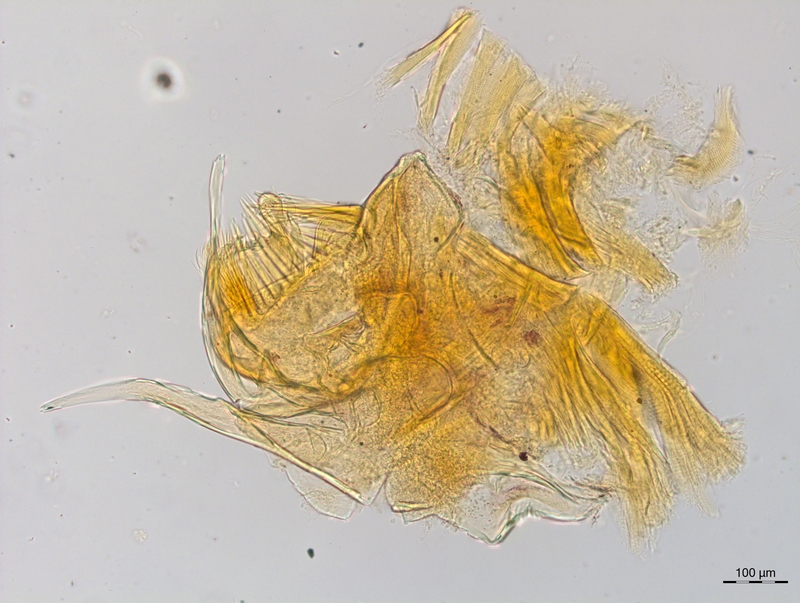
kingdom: Animalia
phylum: Arthropoda
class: Diplopoda
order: Chordeumatida
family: Craspedosomatidae
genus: Craspedosoma
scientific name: Craspedosoma rawlinsii
